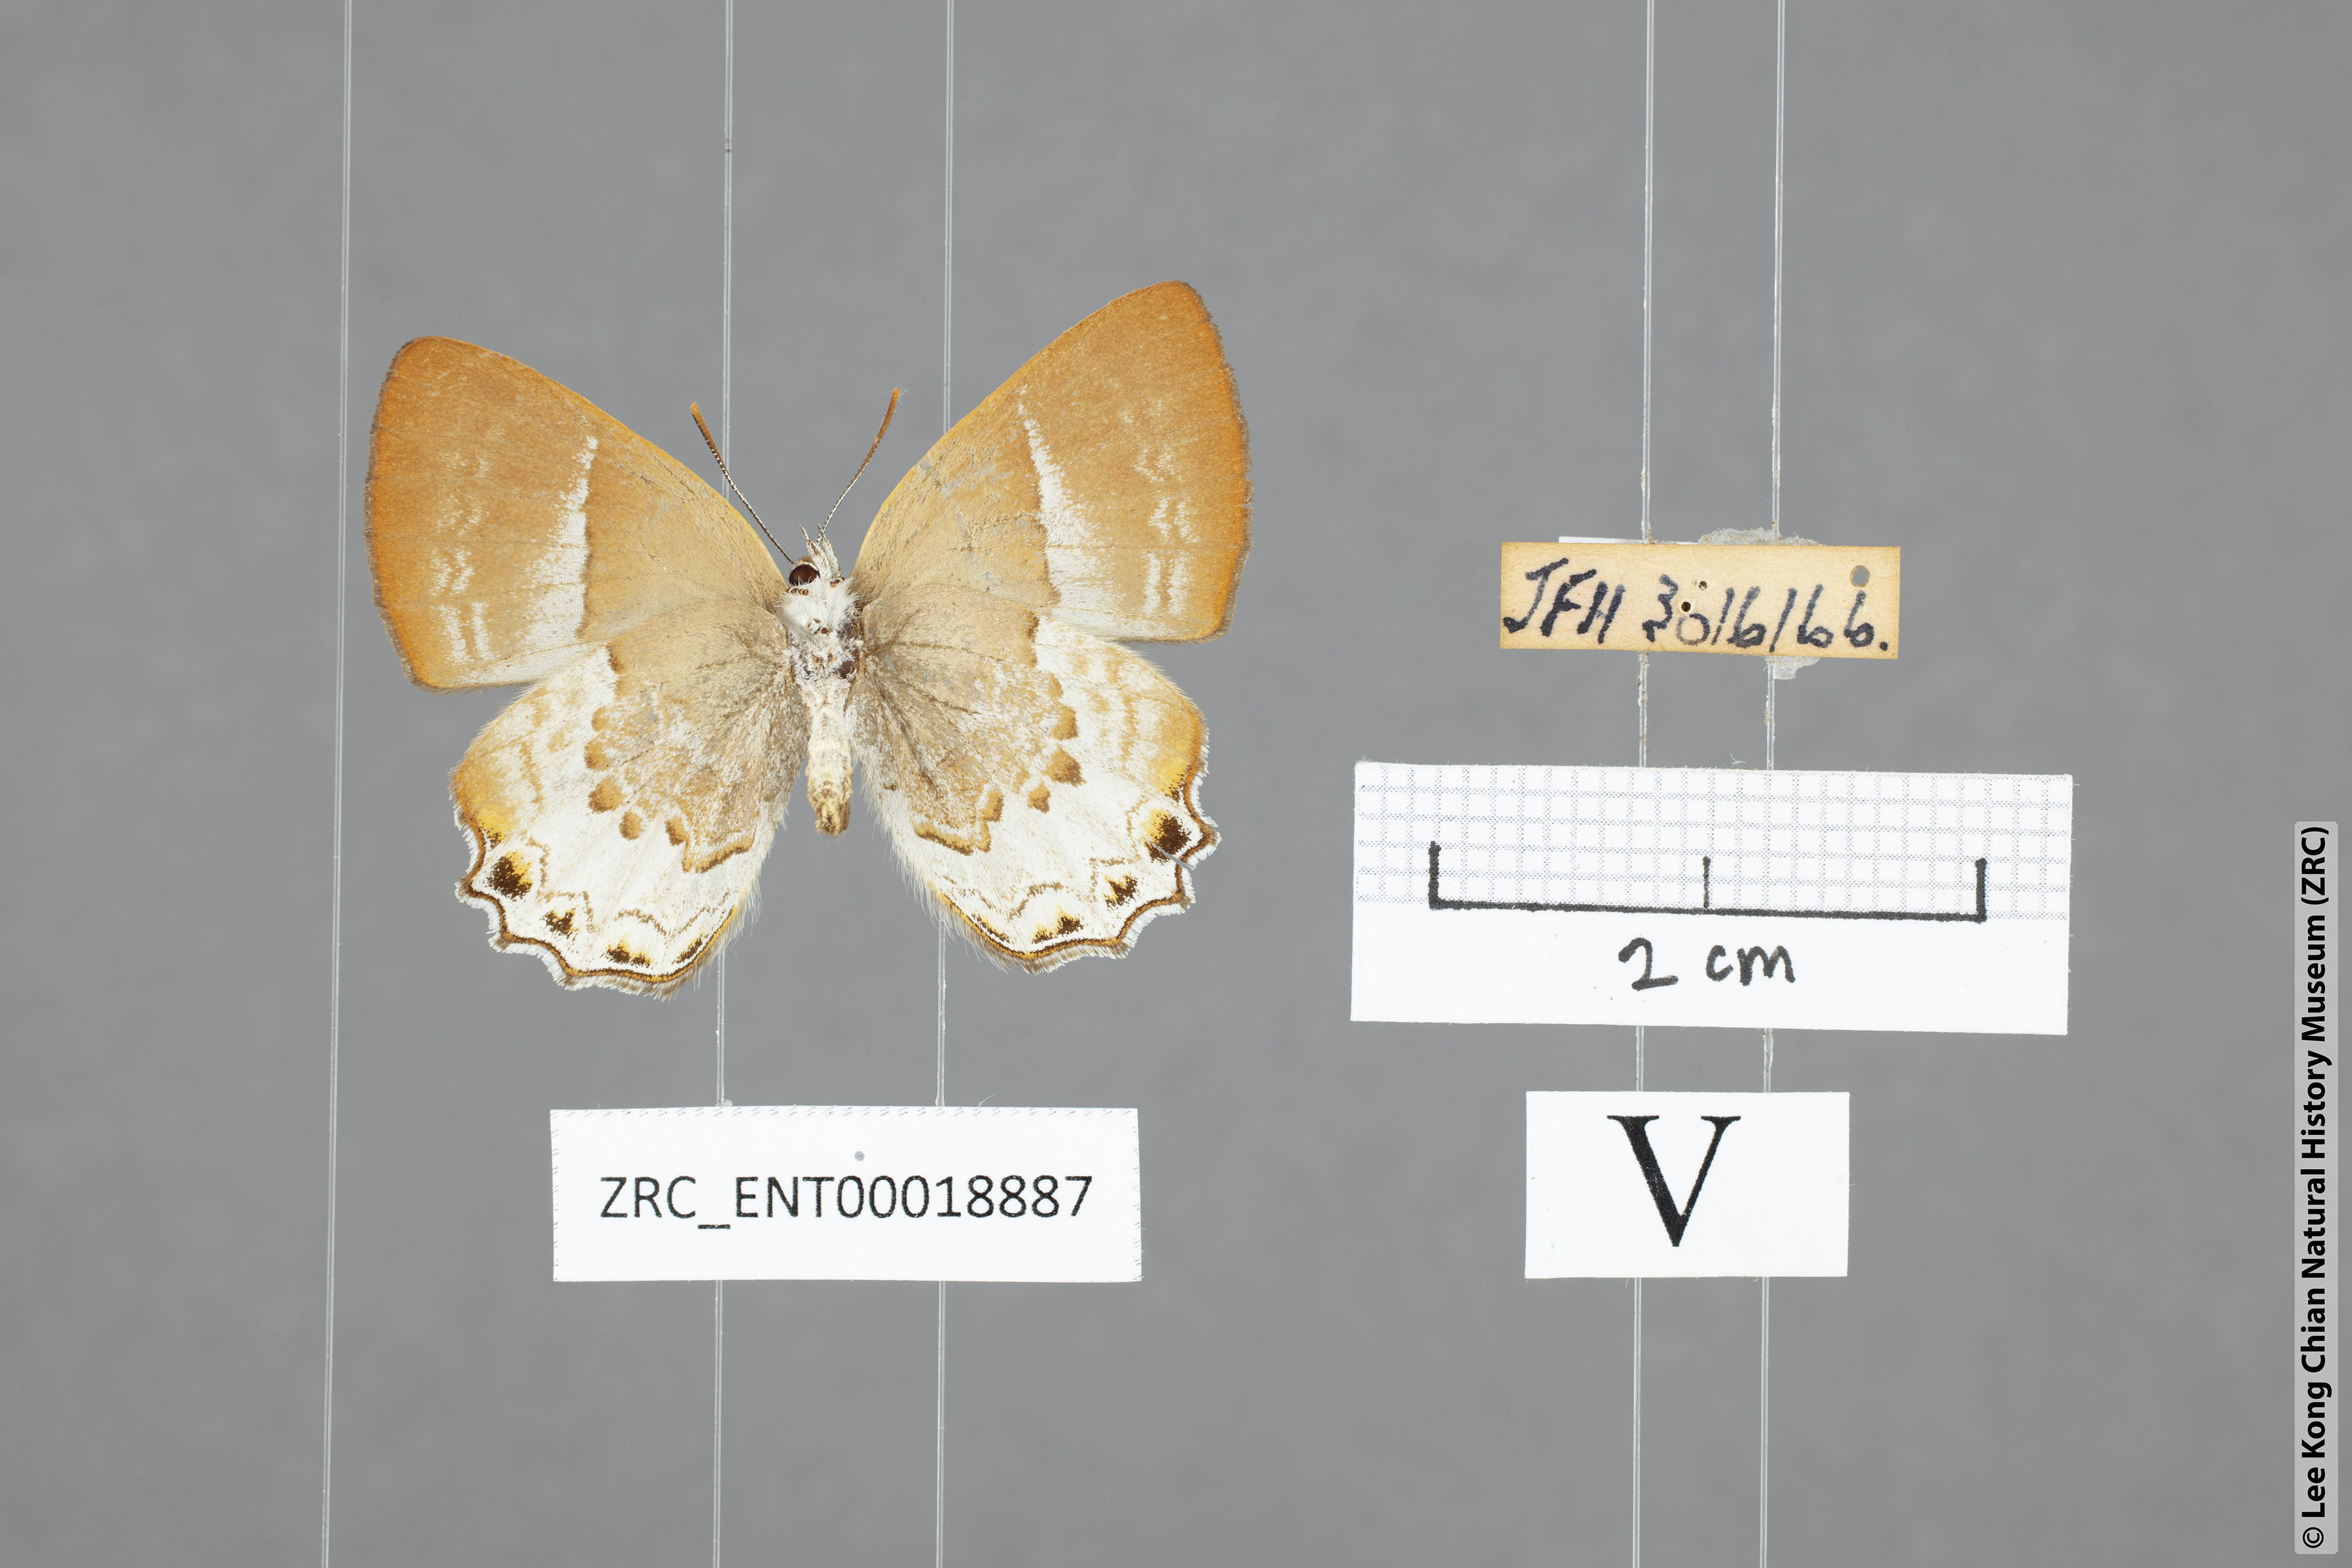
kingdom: Animalia
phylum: Arthropoda
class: Insecta
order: Lepidoptera
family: Lycaenidae
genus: Simiskina
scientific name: Simiskina pheretia
